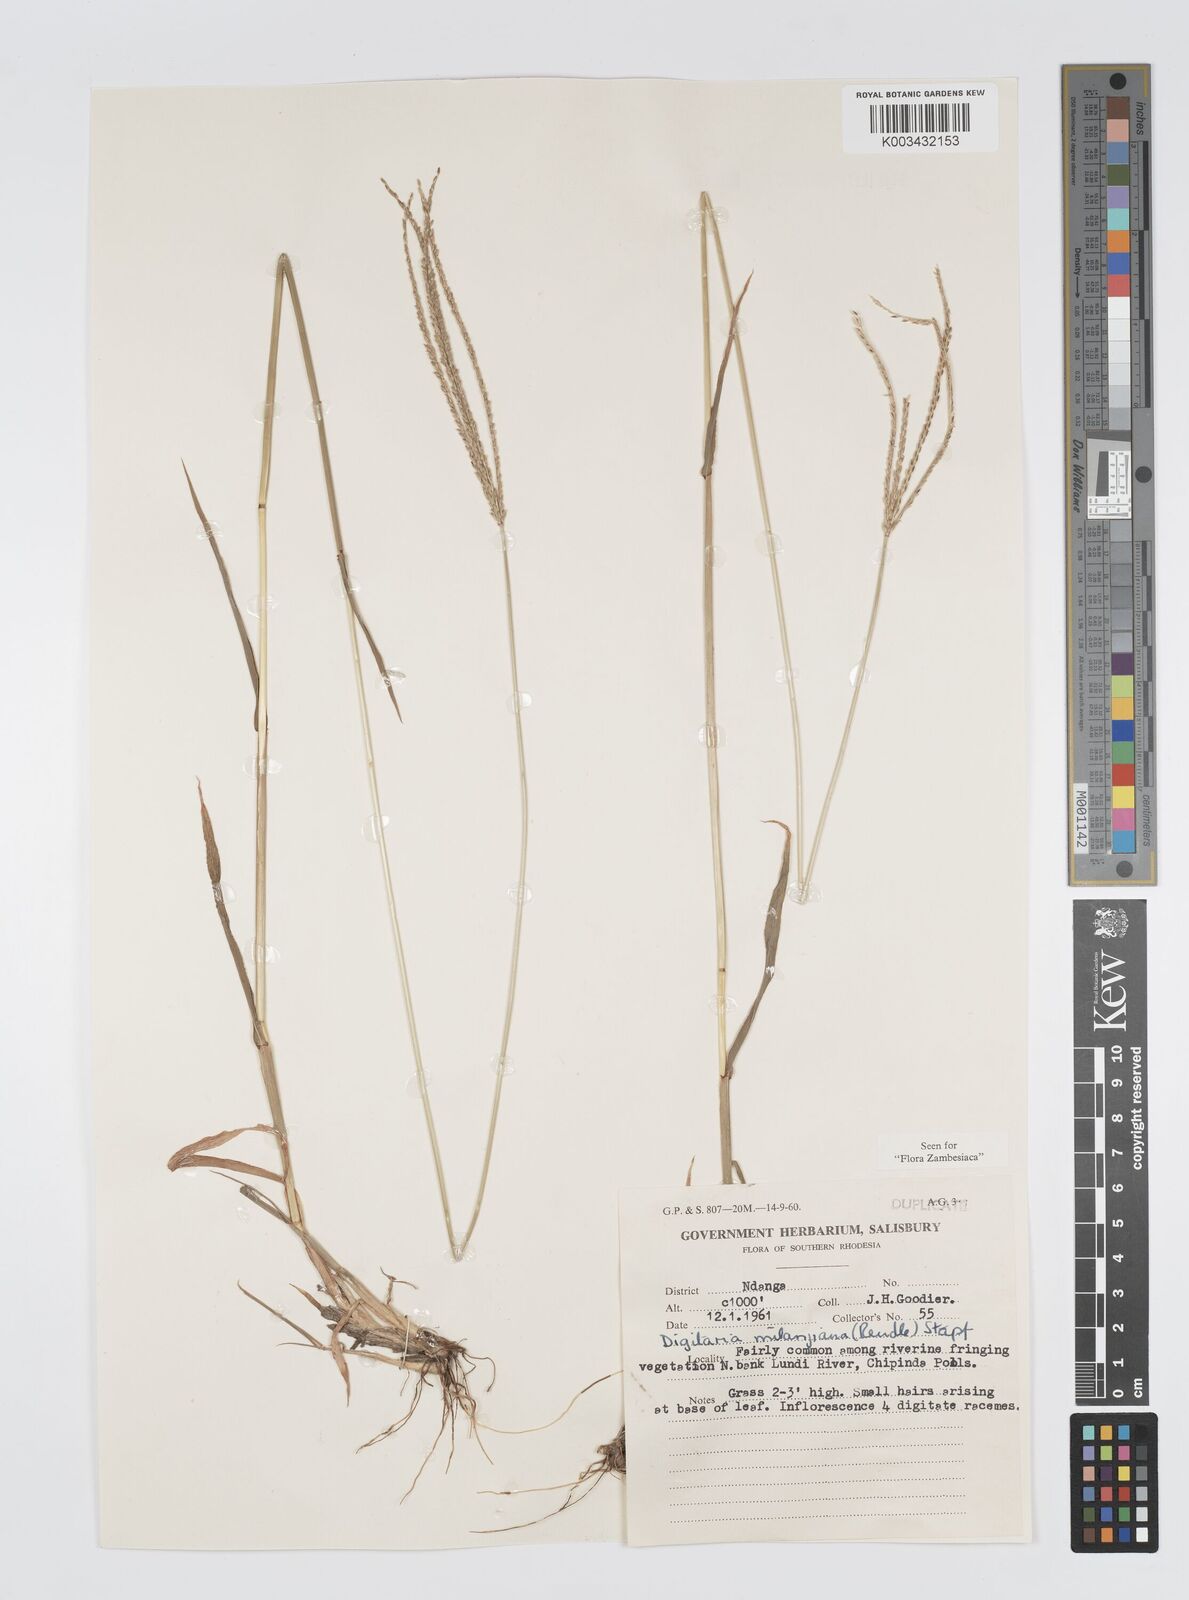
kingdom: Plantae
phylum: Tracheophyta
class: Liliopsida
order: Poales
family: Poaceae
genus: Digitaria
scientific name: Digitaria milanjiana
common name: Madagascar crabgrass
